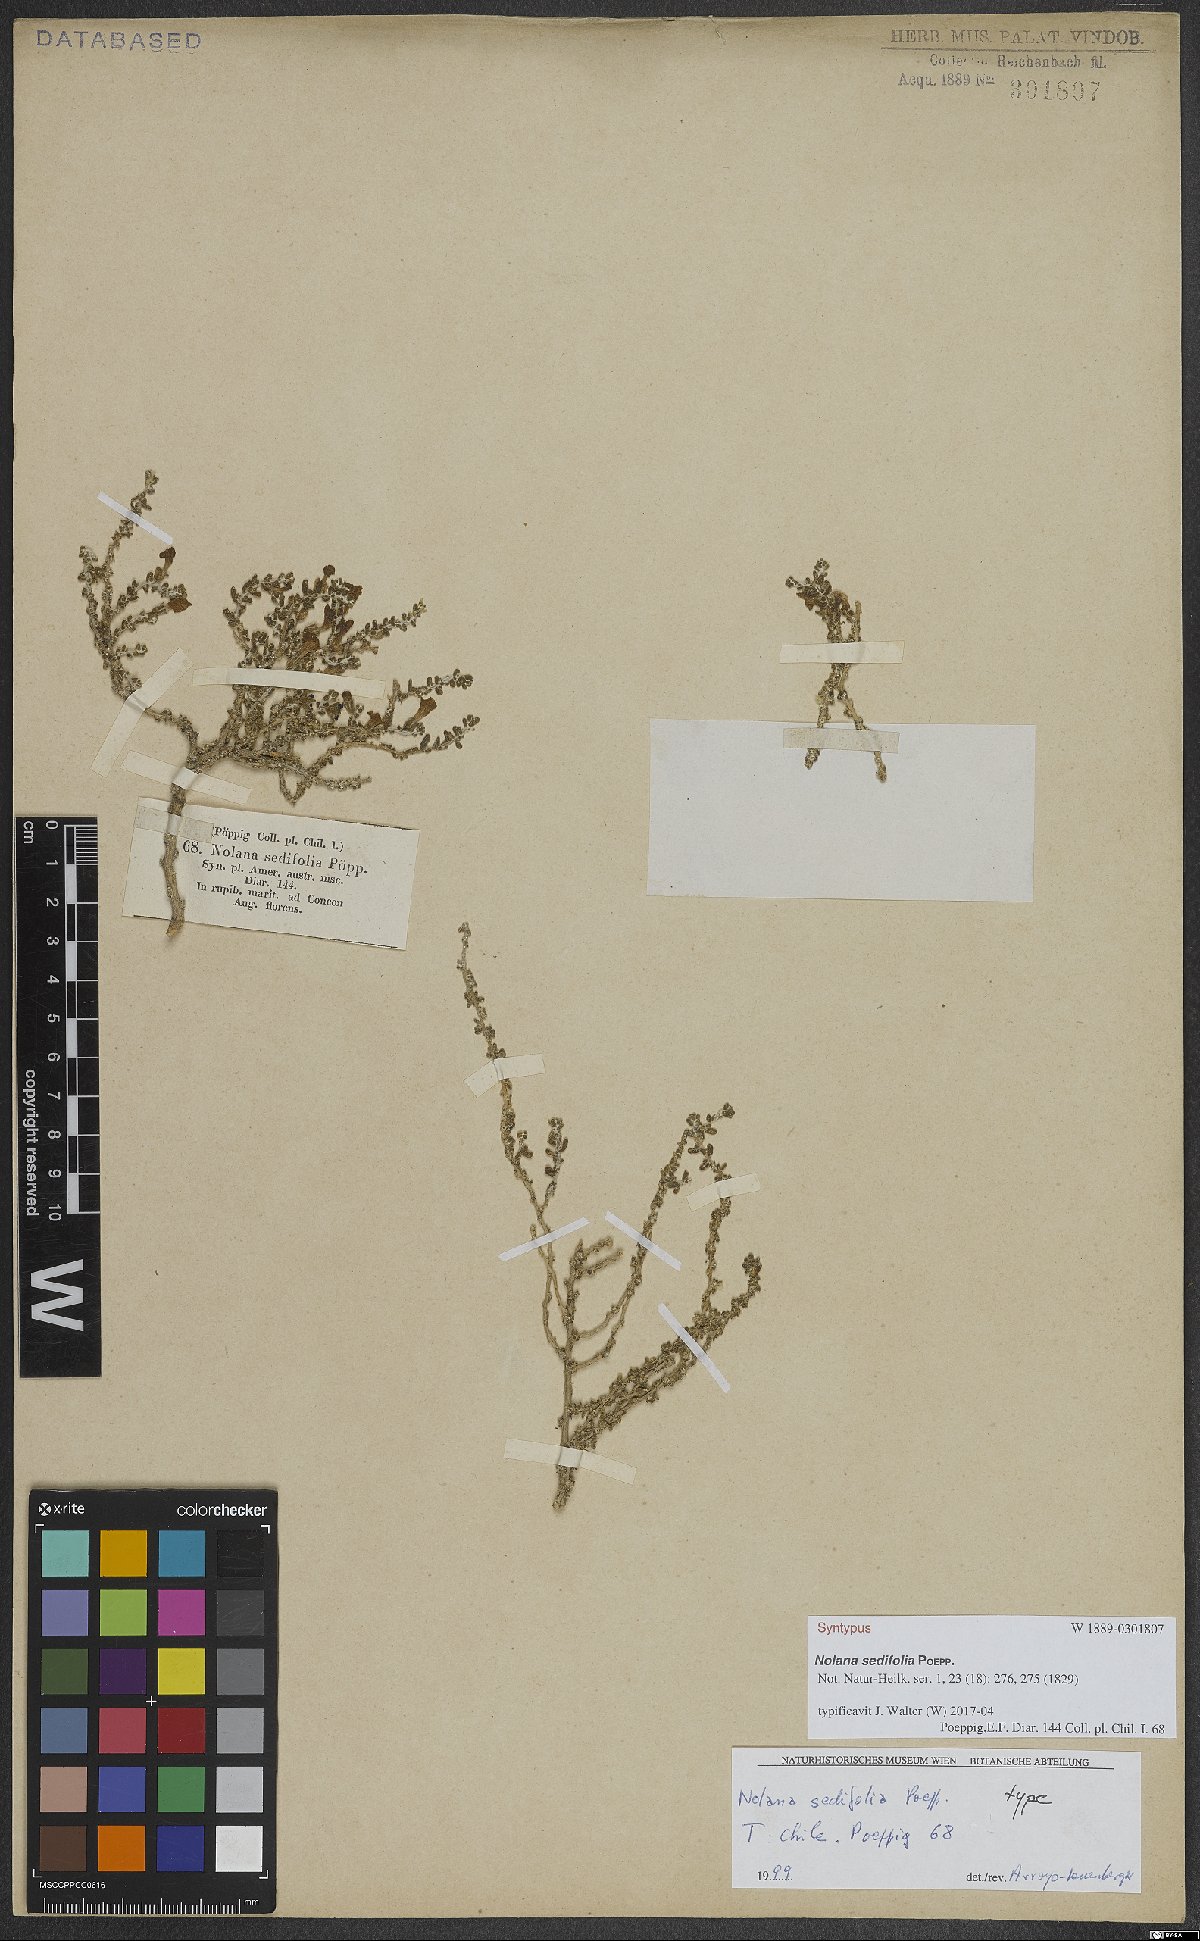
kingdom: Plantae
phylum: Tracheophyta
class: Magnoliopsida
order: Solanales
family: Solanaceae
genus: Nolana
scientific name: Nolana sedifolia
